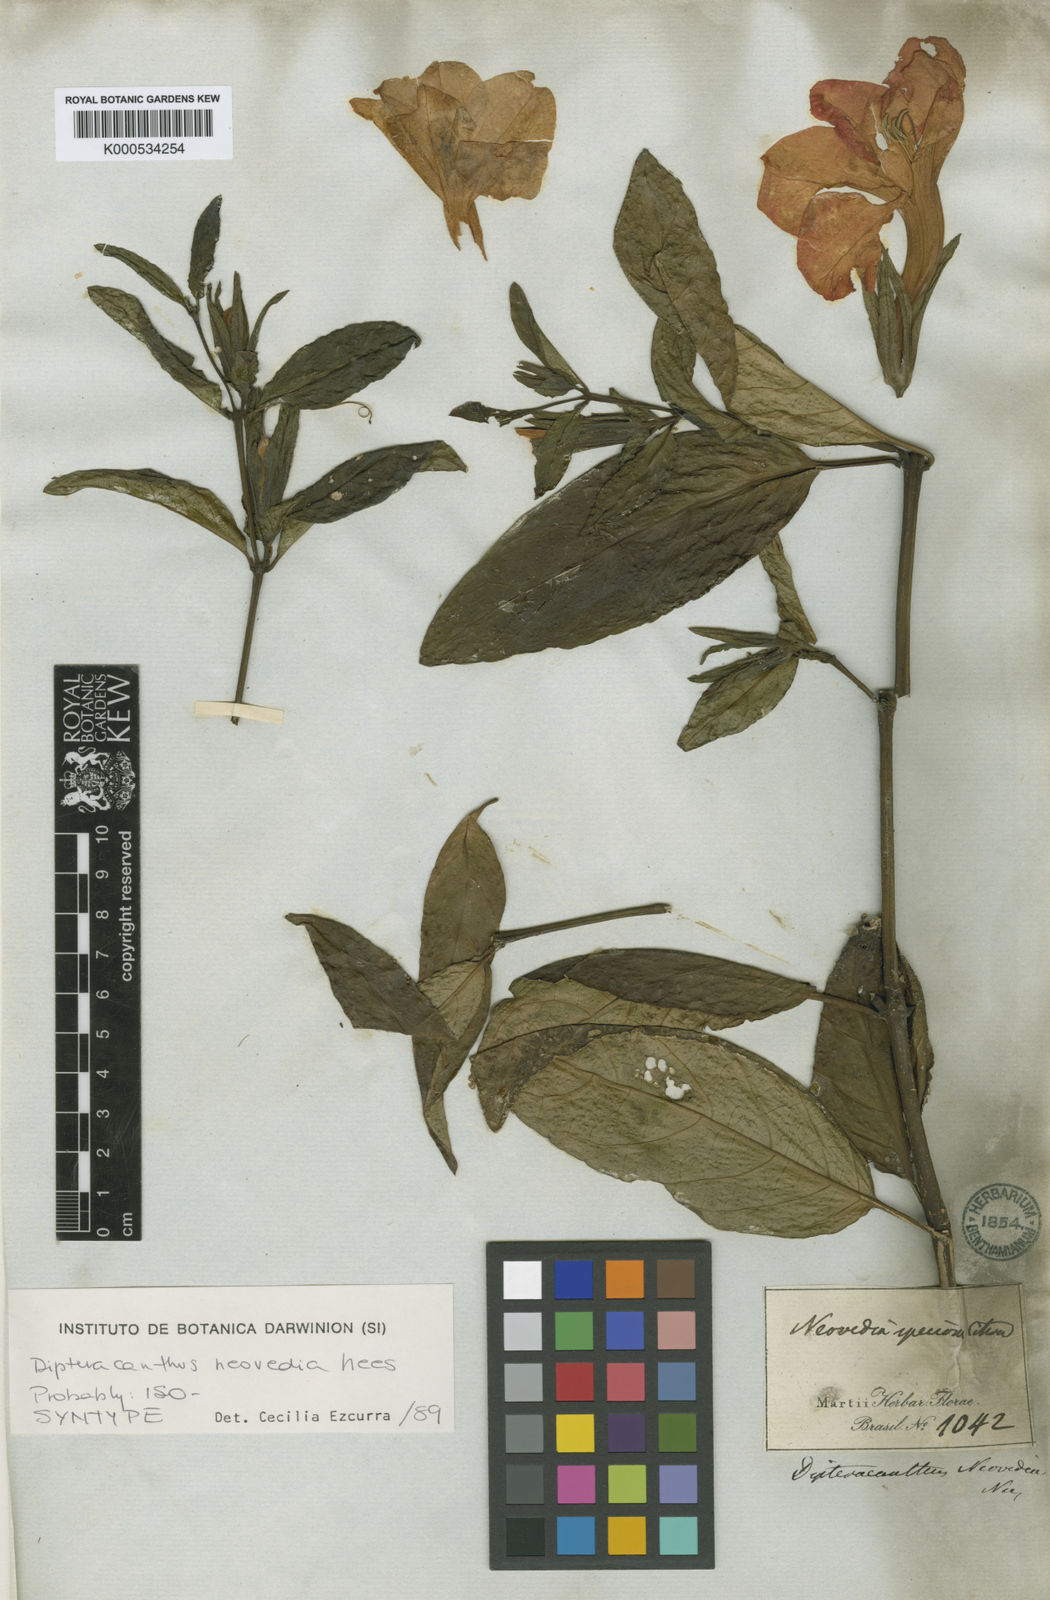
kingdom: Plantae
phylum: Tracheophyta
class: Magnoliopsida
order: Lamiales
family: Acanthaceae
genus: Ruellia
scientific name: Ruellia
